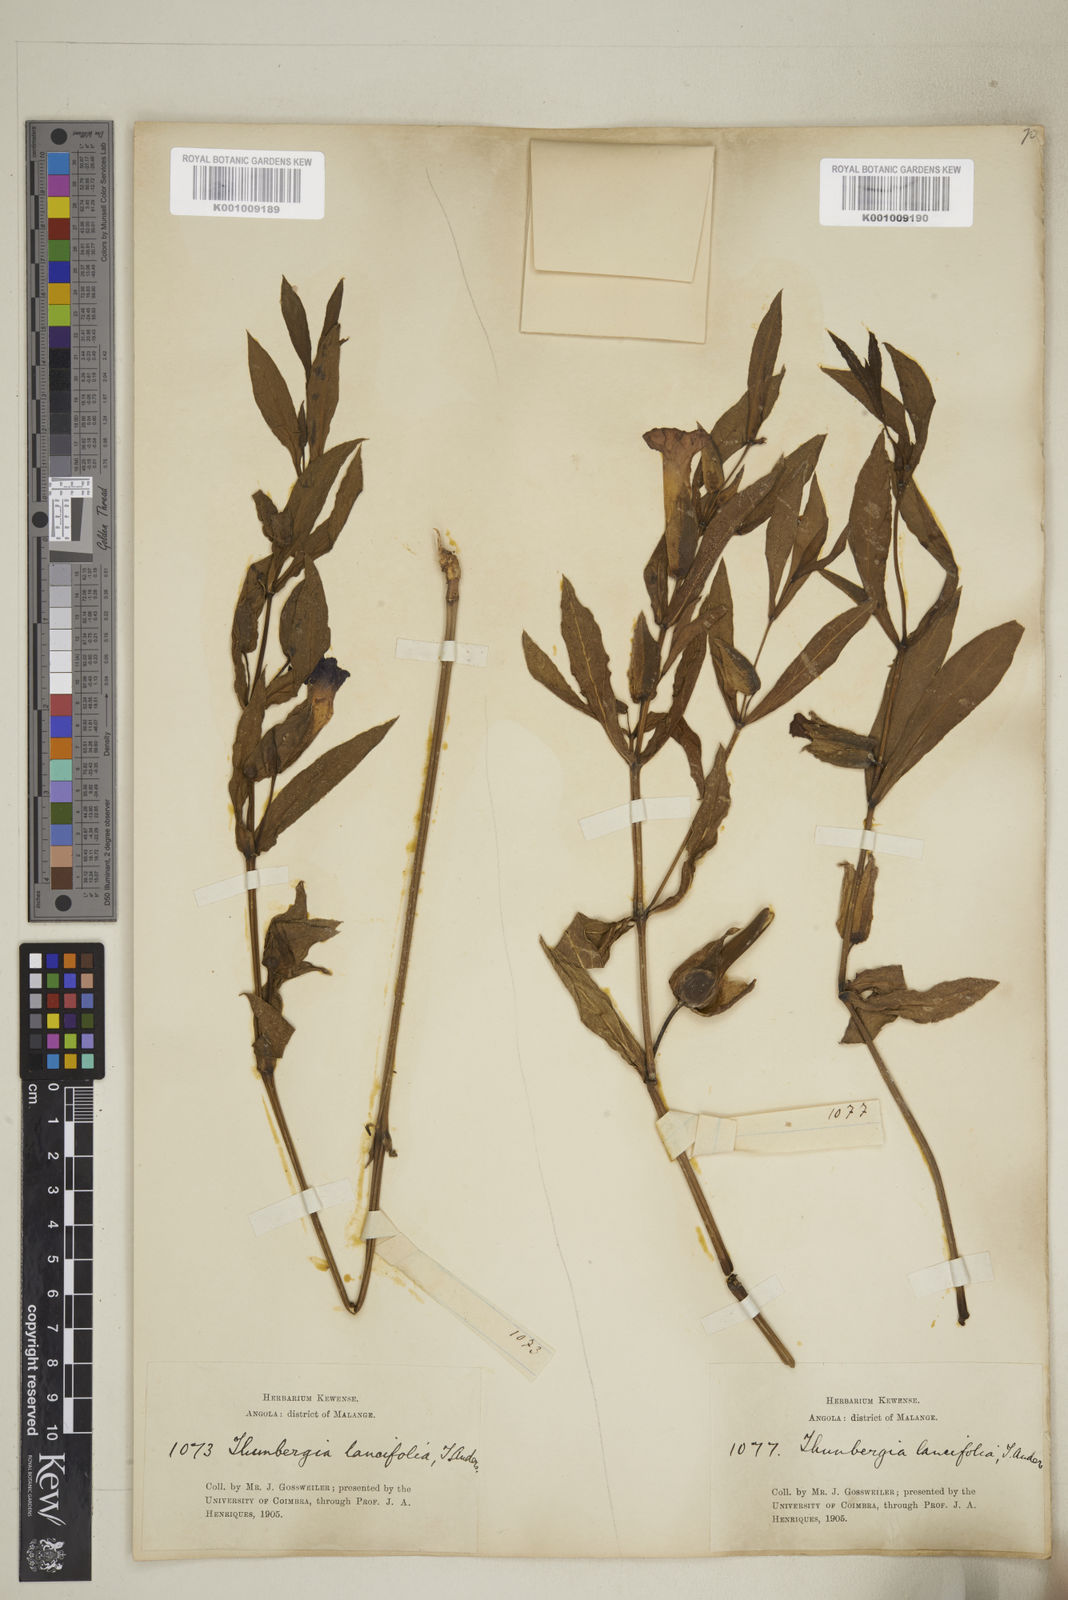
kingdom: Plantae
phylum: Tracheophyta
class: Magnoliopsida
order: Lamiales
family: Acanthaceae
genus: Thunbergia
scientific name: Thunbergia lancifolia
